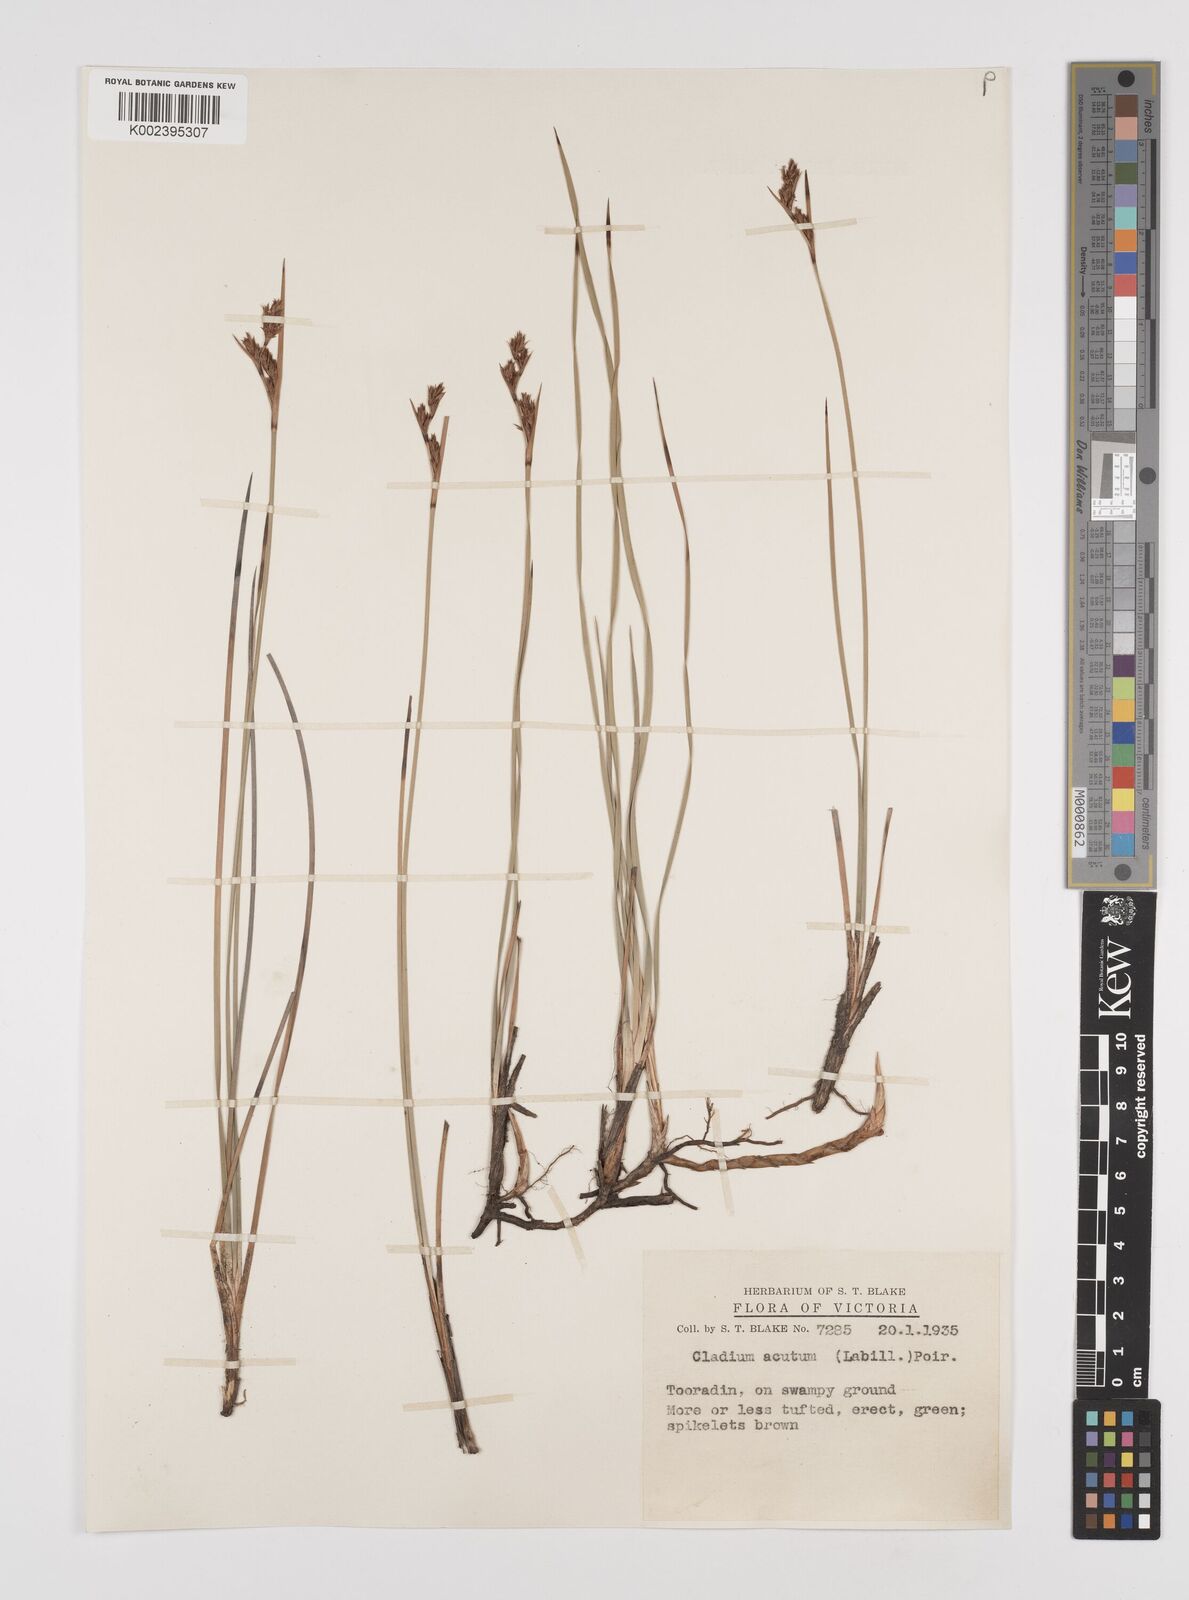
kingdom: Plantae
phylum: Tracheophyta
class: Liliopsida
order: Poales
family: Cyperaceae
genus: Machaerina
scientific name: Machaerina acuta
